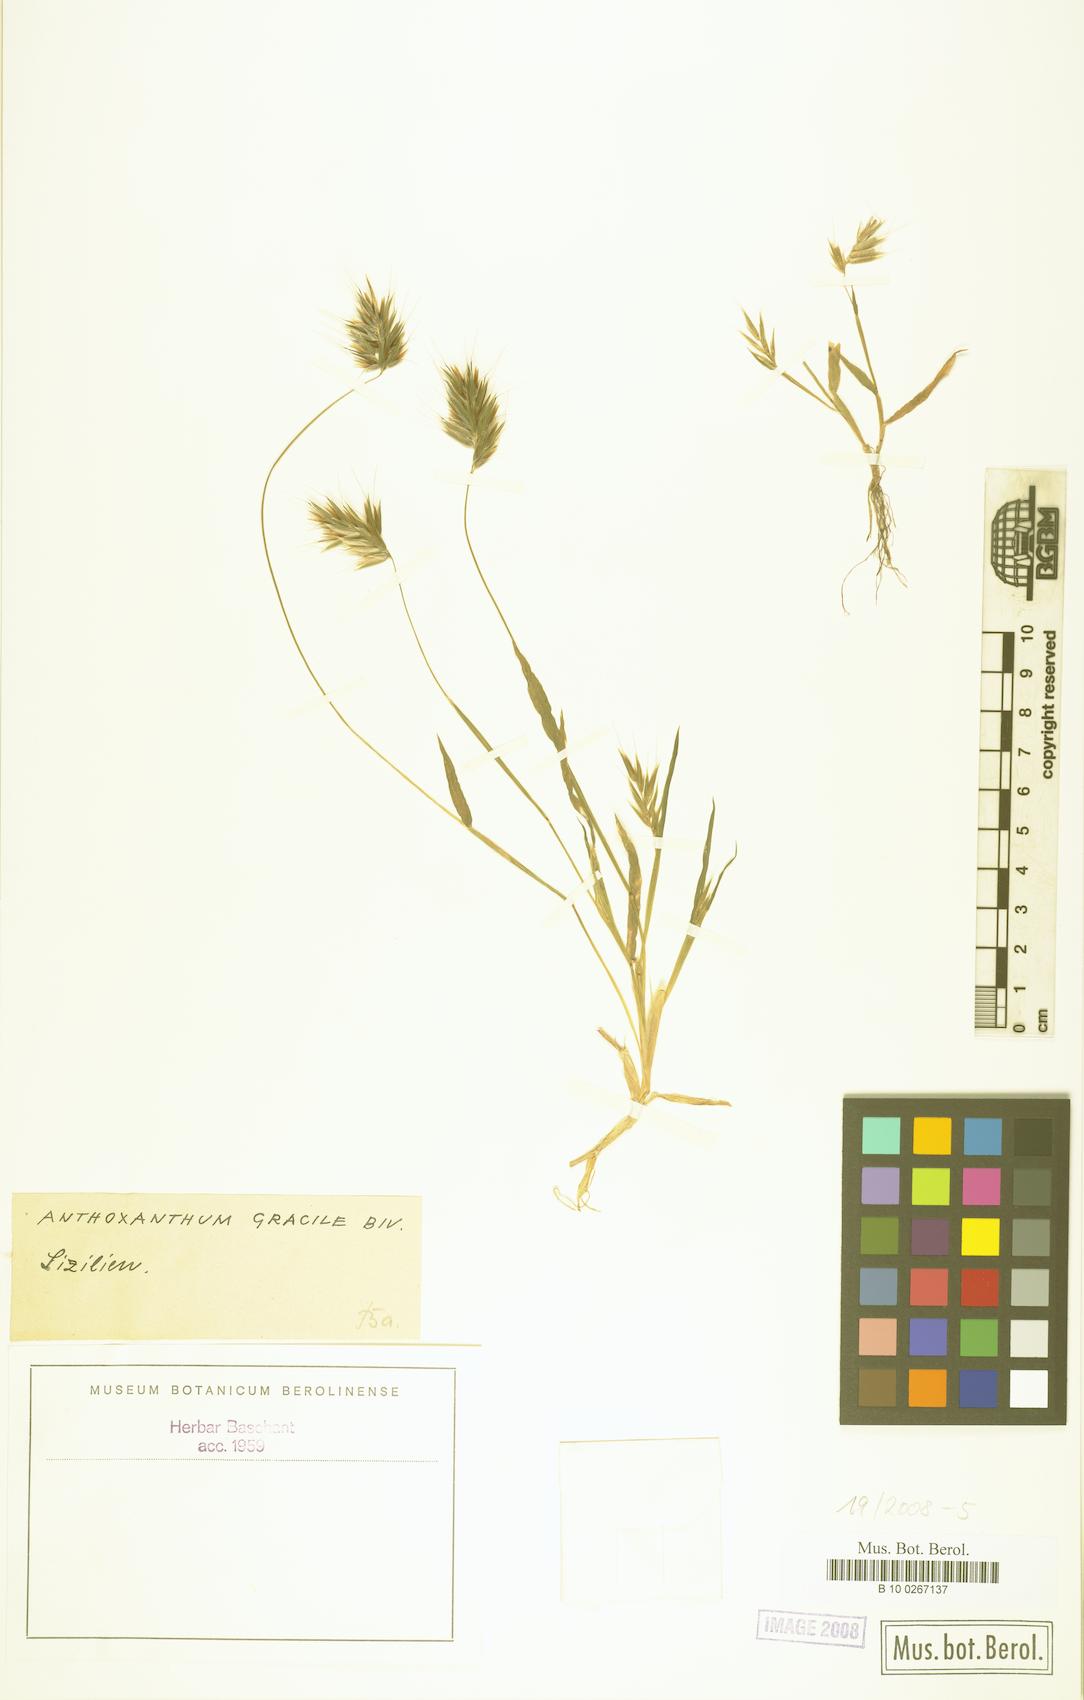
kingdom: Plantae
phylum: Tracheophyta
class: Liliopsida
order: Poales
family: Poaceae
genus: Anthoxanthum
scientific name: Anthoxanthum gracile
